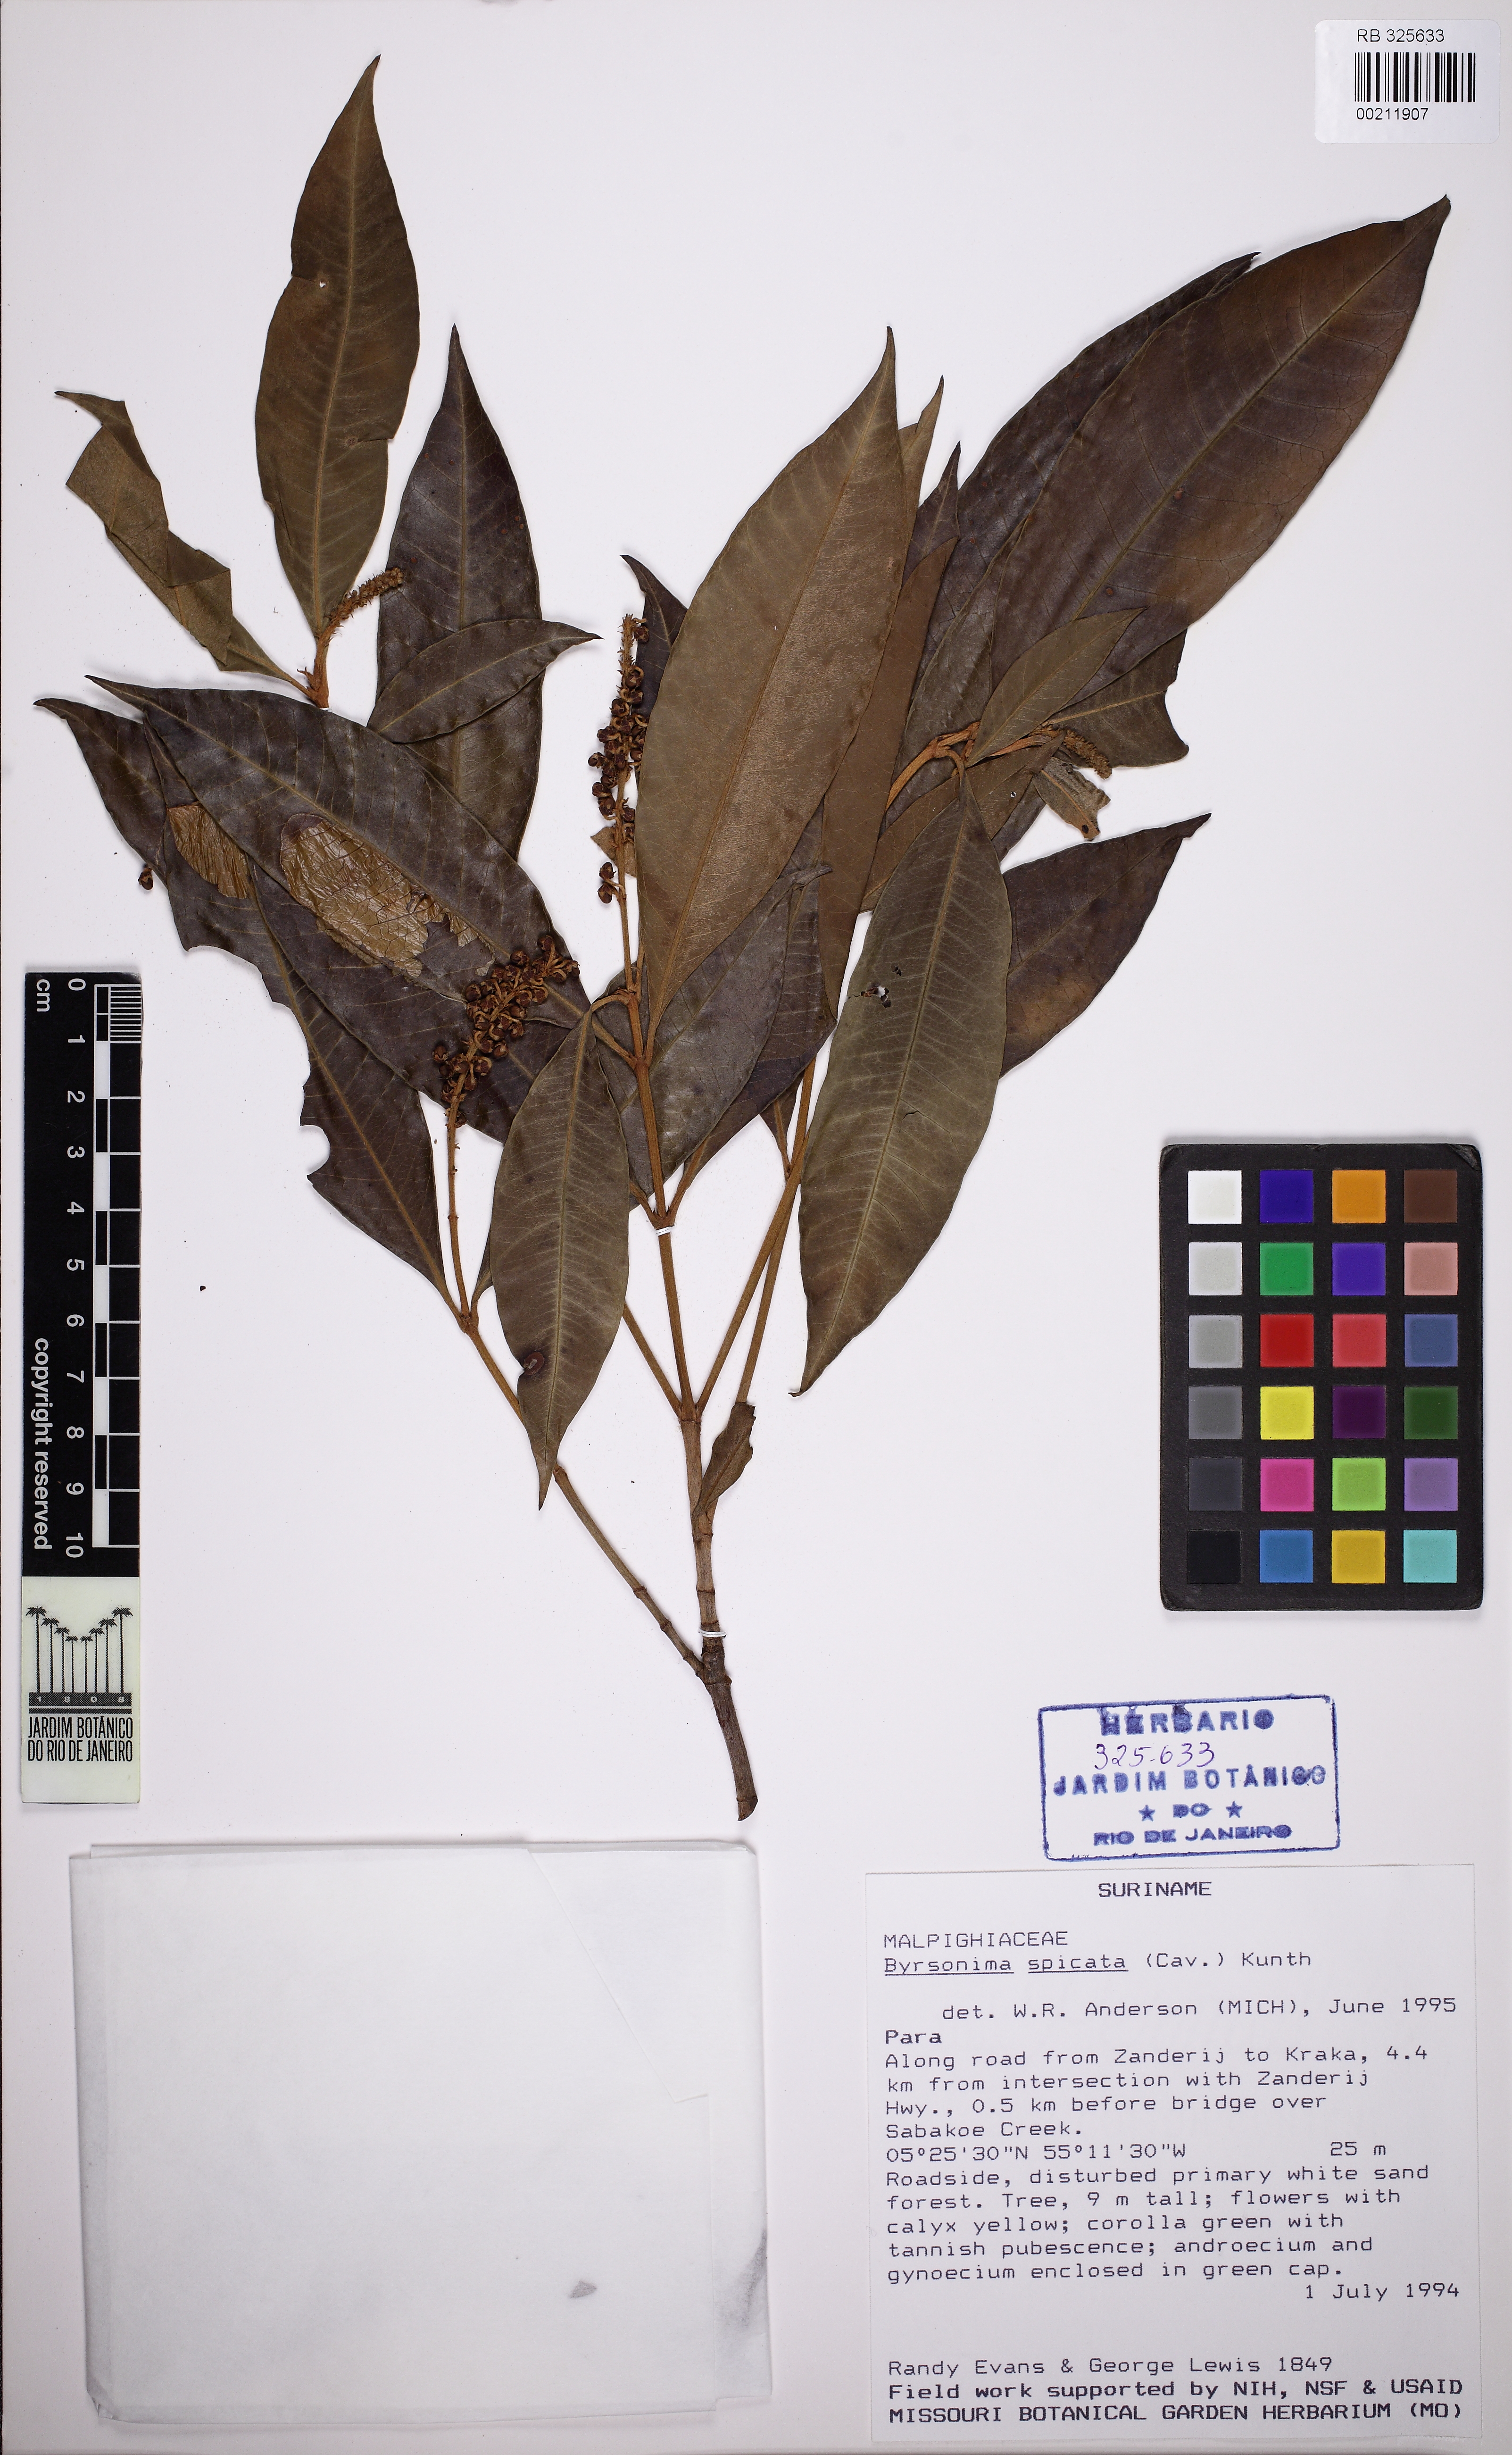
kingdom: Plantae
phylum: Tracheophyta
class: Magnoliopsida
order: Malpighiales
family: Malpighiaceae
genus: Byrsonima
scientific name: Byrsonima spicata
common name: Murixi-bark-tree
